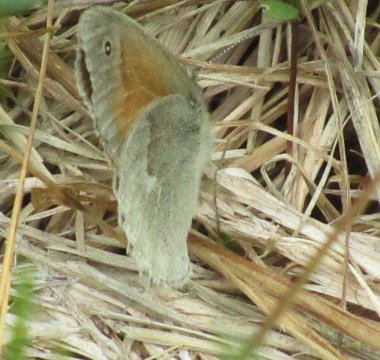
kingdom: Animalia
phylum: Arthropoda
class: Insecta
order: Lepidoptera
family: Nymphalidae
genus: Coenonympha
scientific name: Coenonympha tullia
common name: Large Heath
